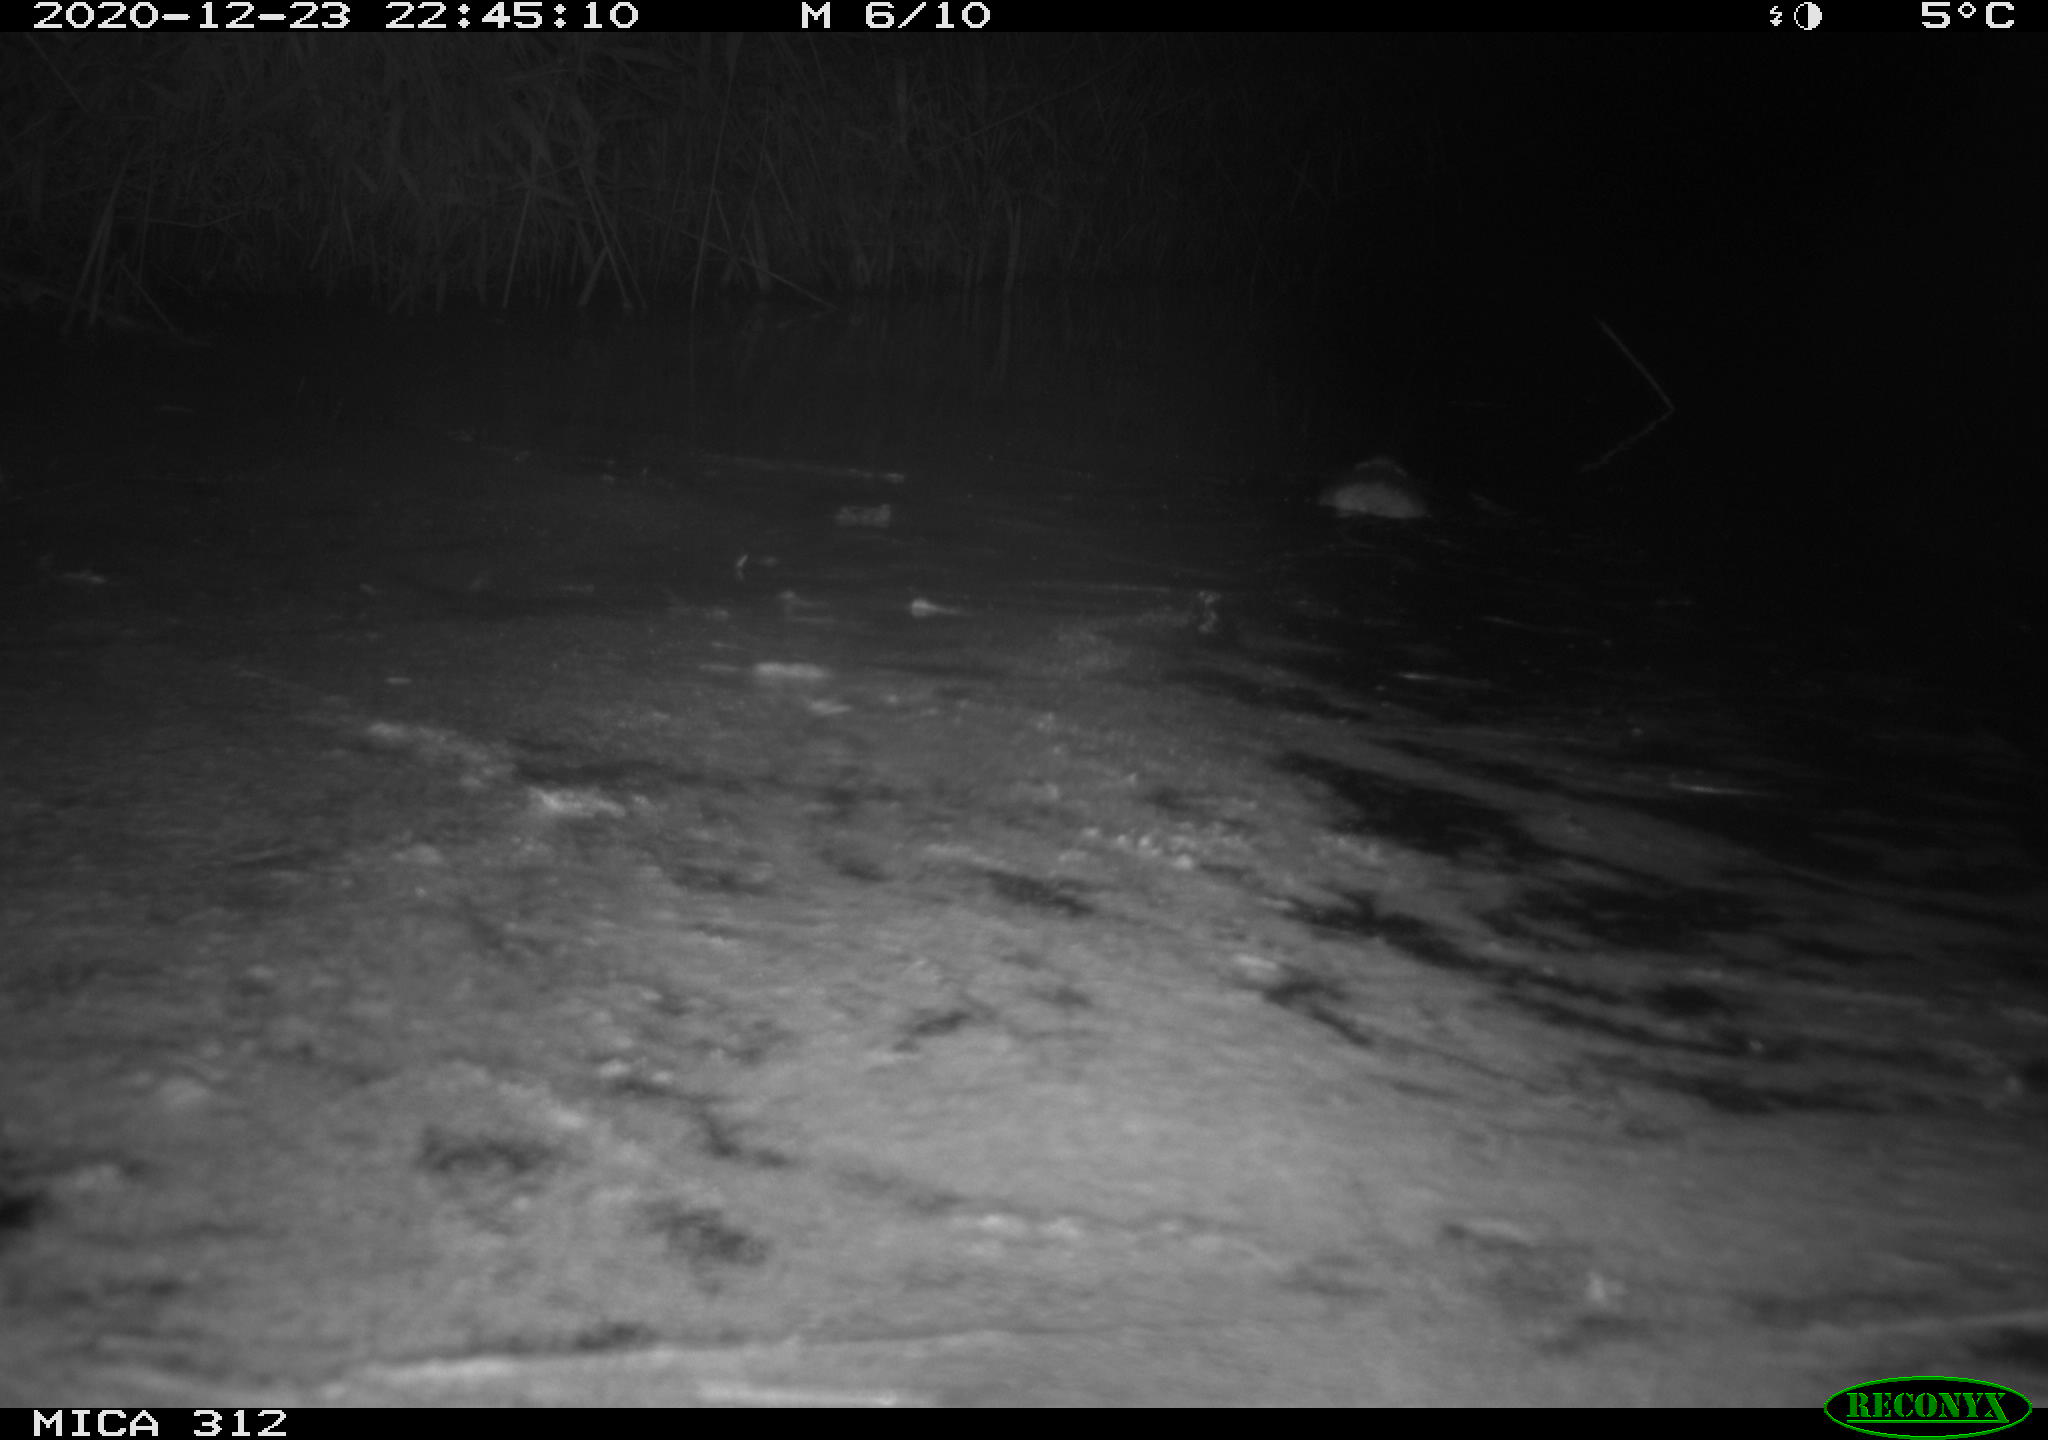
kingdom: Animalia
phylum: Chordata
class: Mammalia
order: Rodentia
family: Muridae
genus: Rattus
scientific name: Rattus norvegicus
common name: Brown rat
